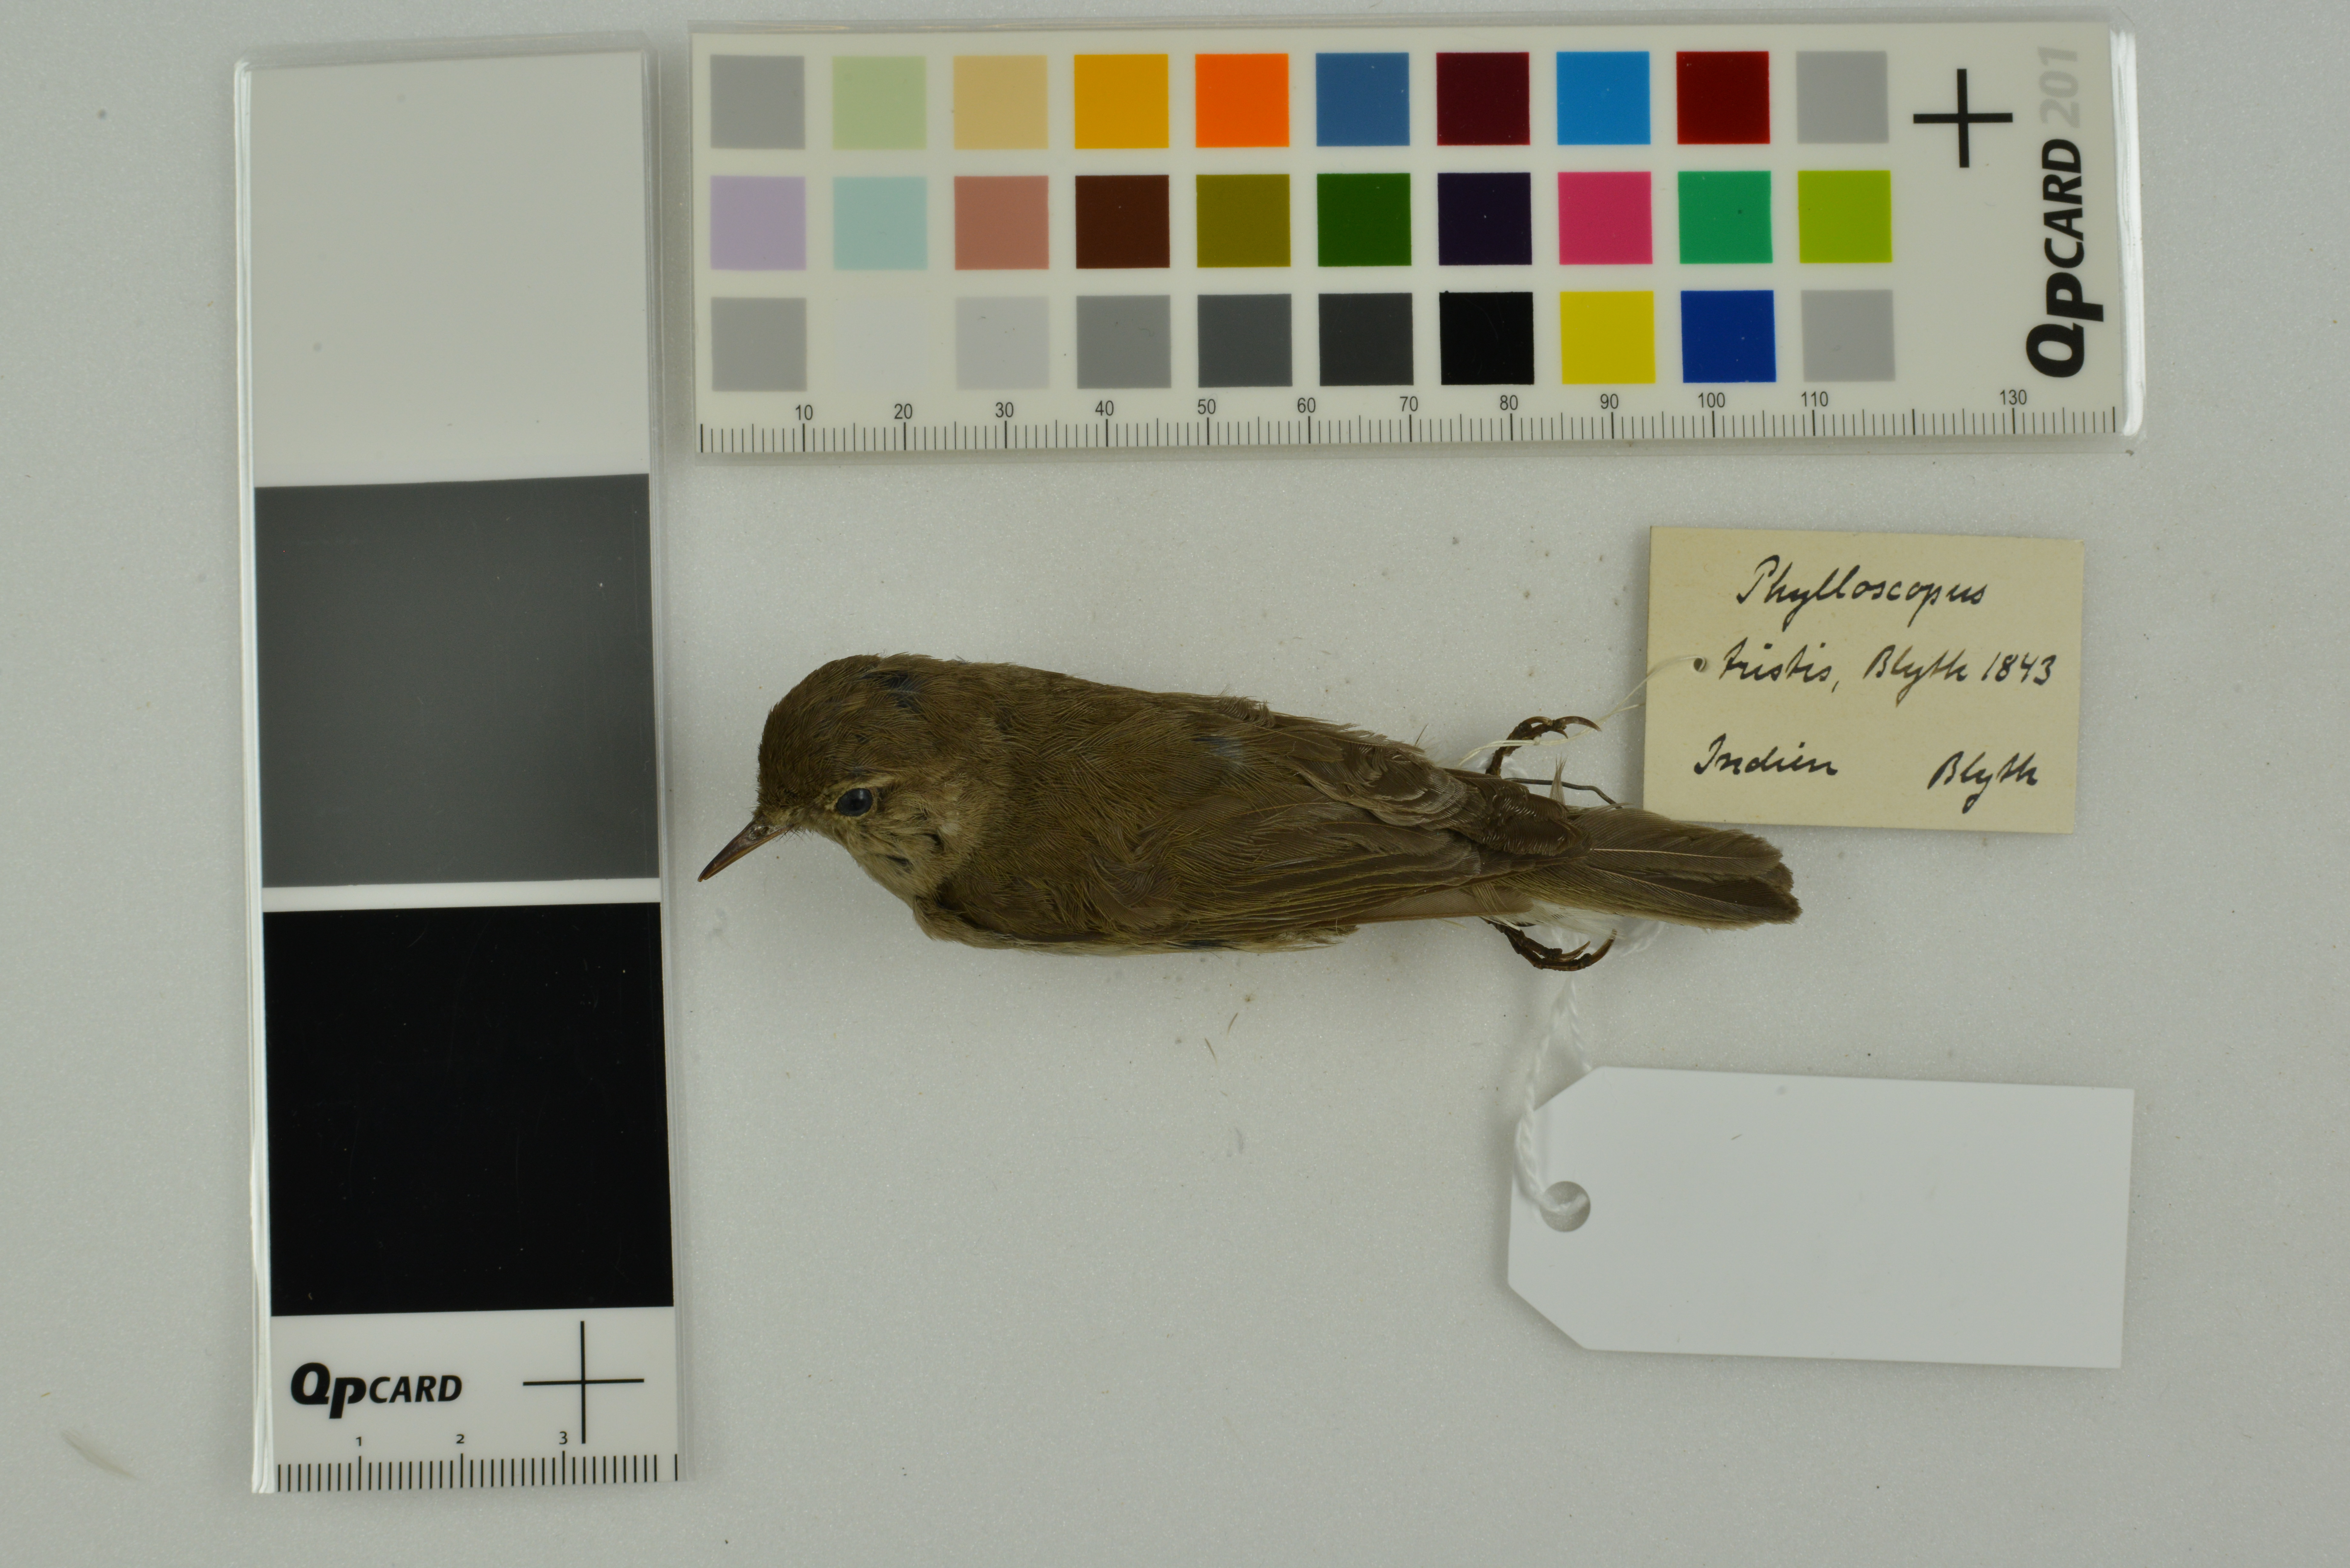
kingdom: Animalia
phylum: Chordata
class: Aves
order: Passeriformes
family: Phylloscopidae
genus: Phylloscopus
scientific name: Phylloscopus collybita
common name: Common chiffchaff
